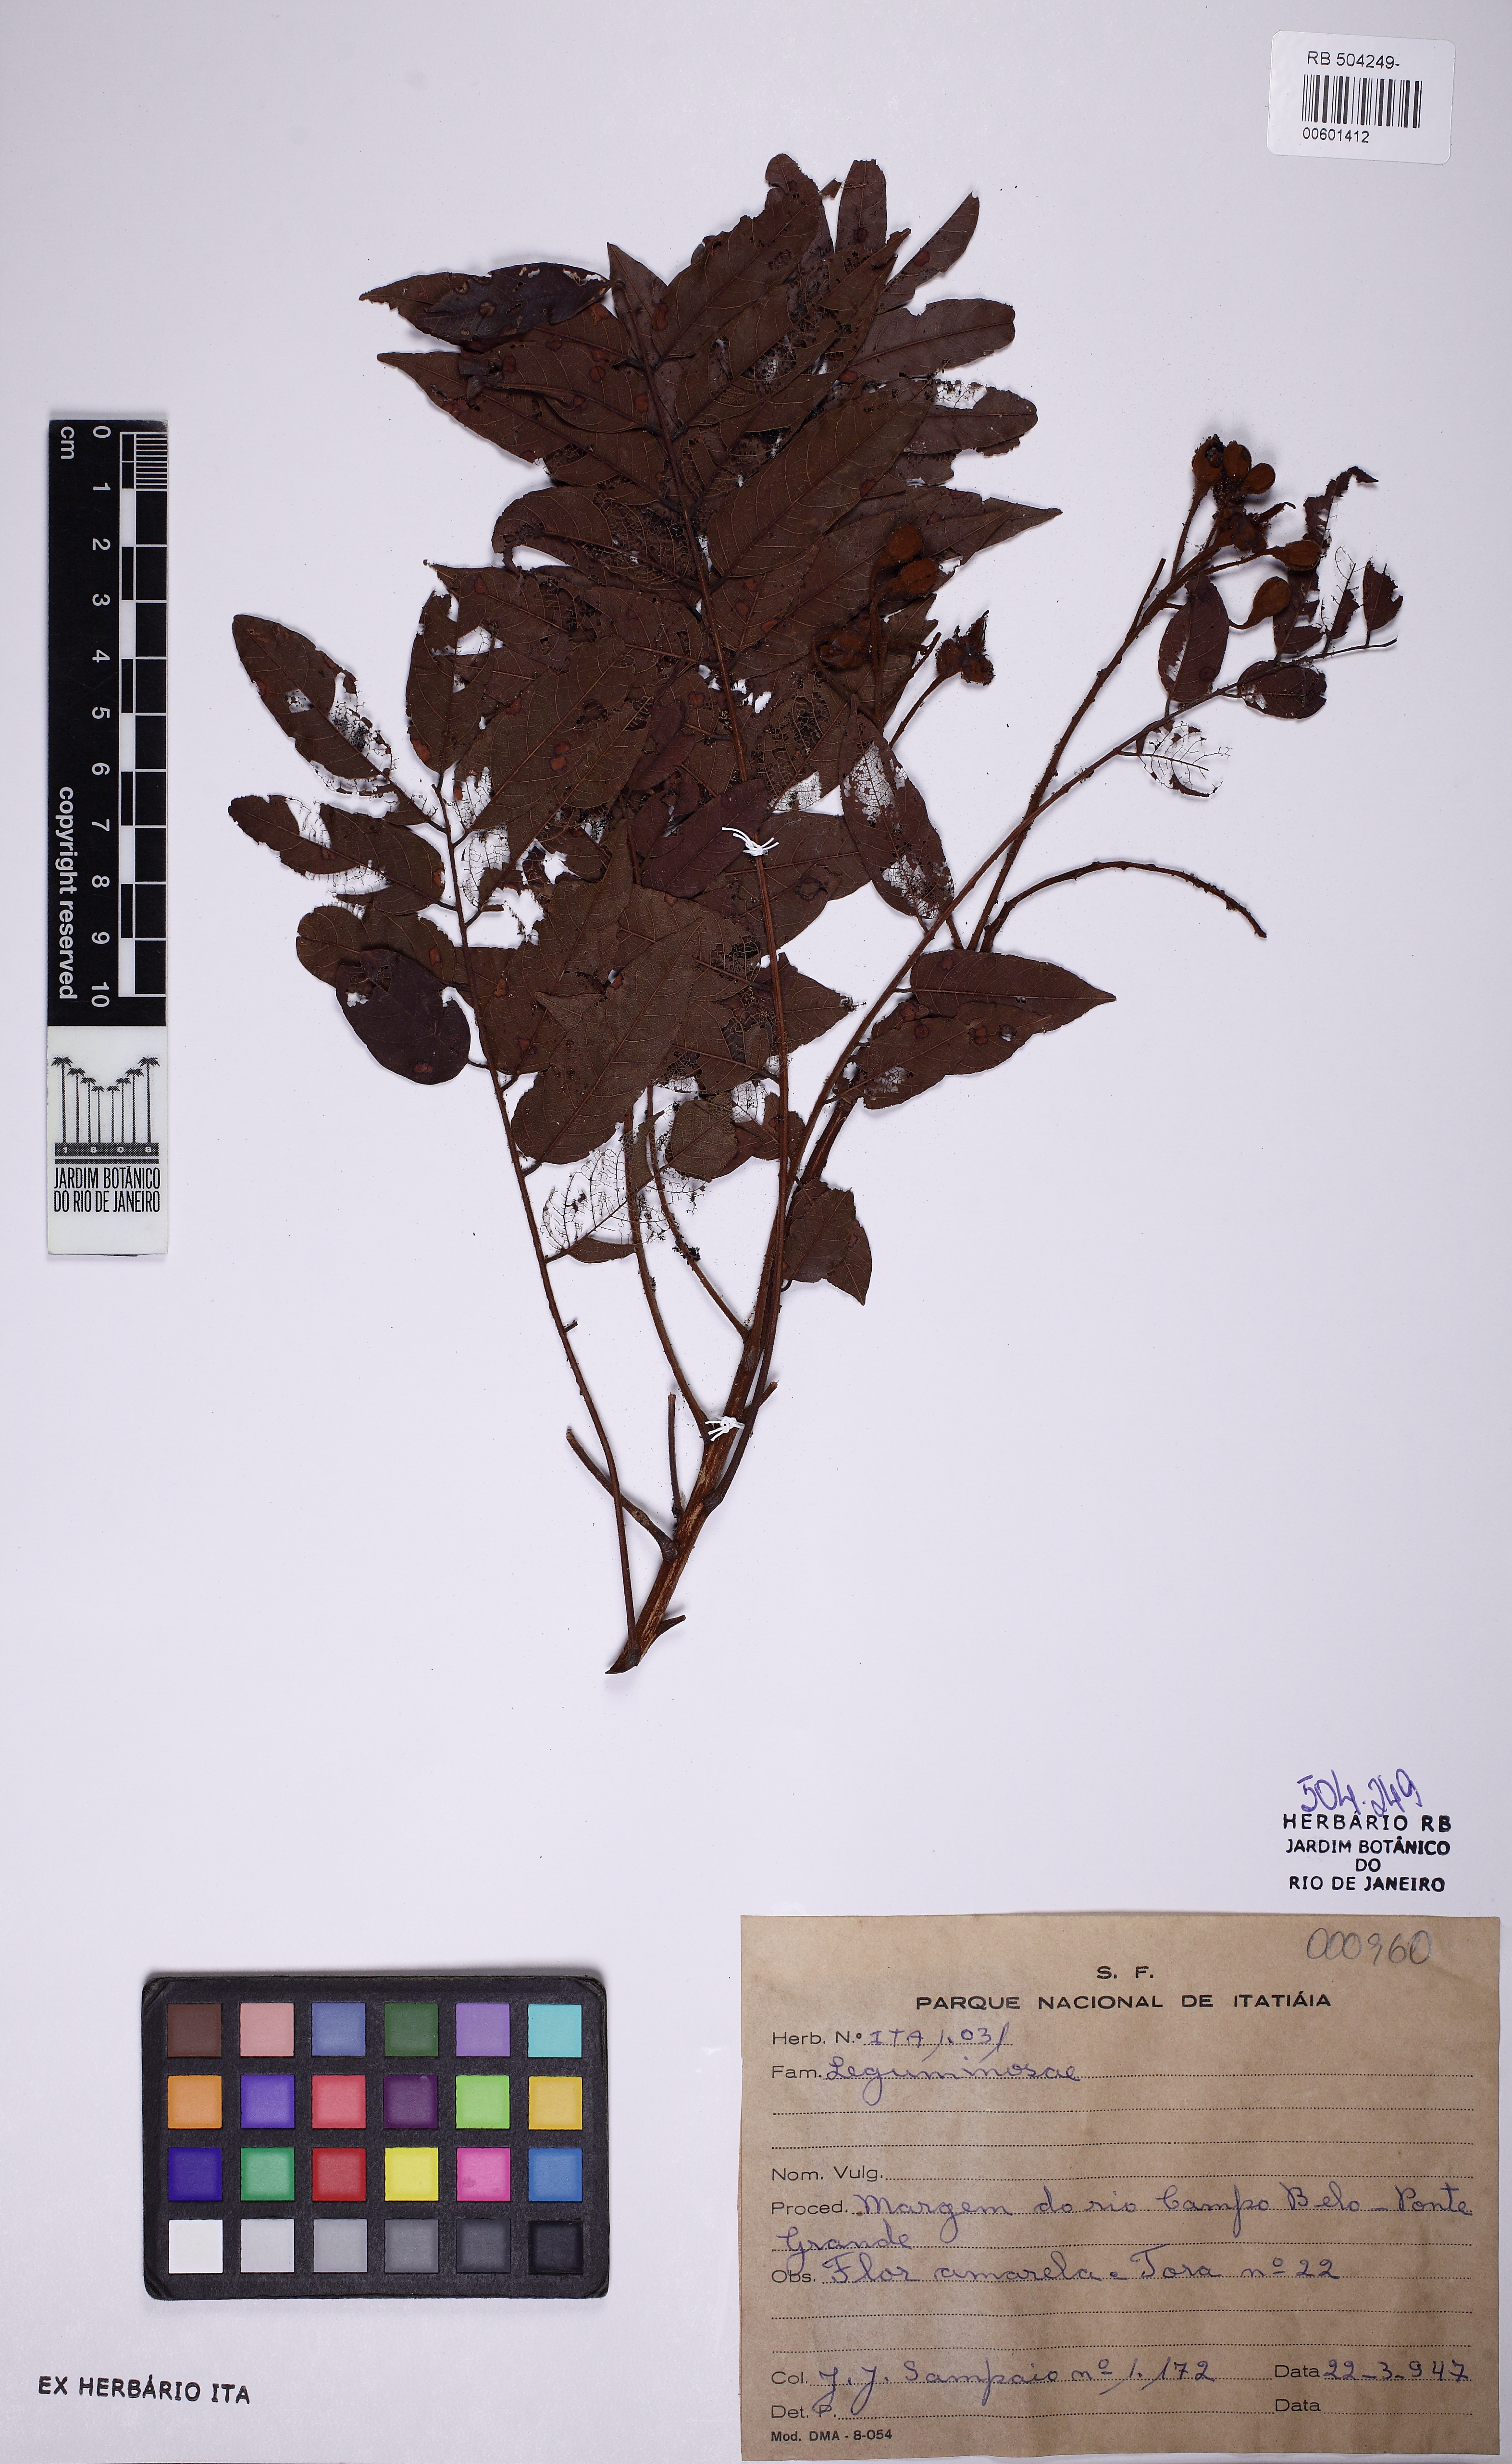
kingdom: Plantae
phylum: Tracheophyta
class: Magnoliopsida
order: Fabales
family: Fabaceae
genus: Melanoxylon
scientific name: Melanoxylon
